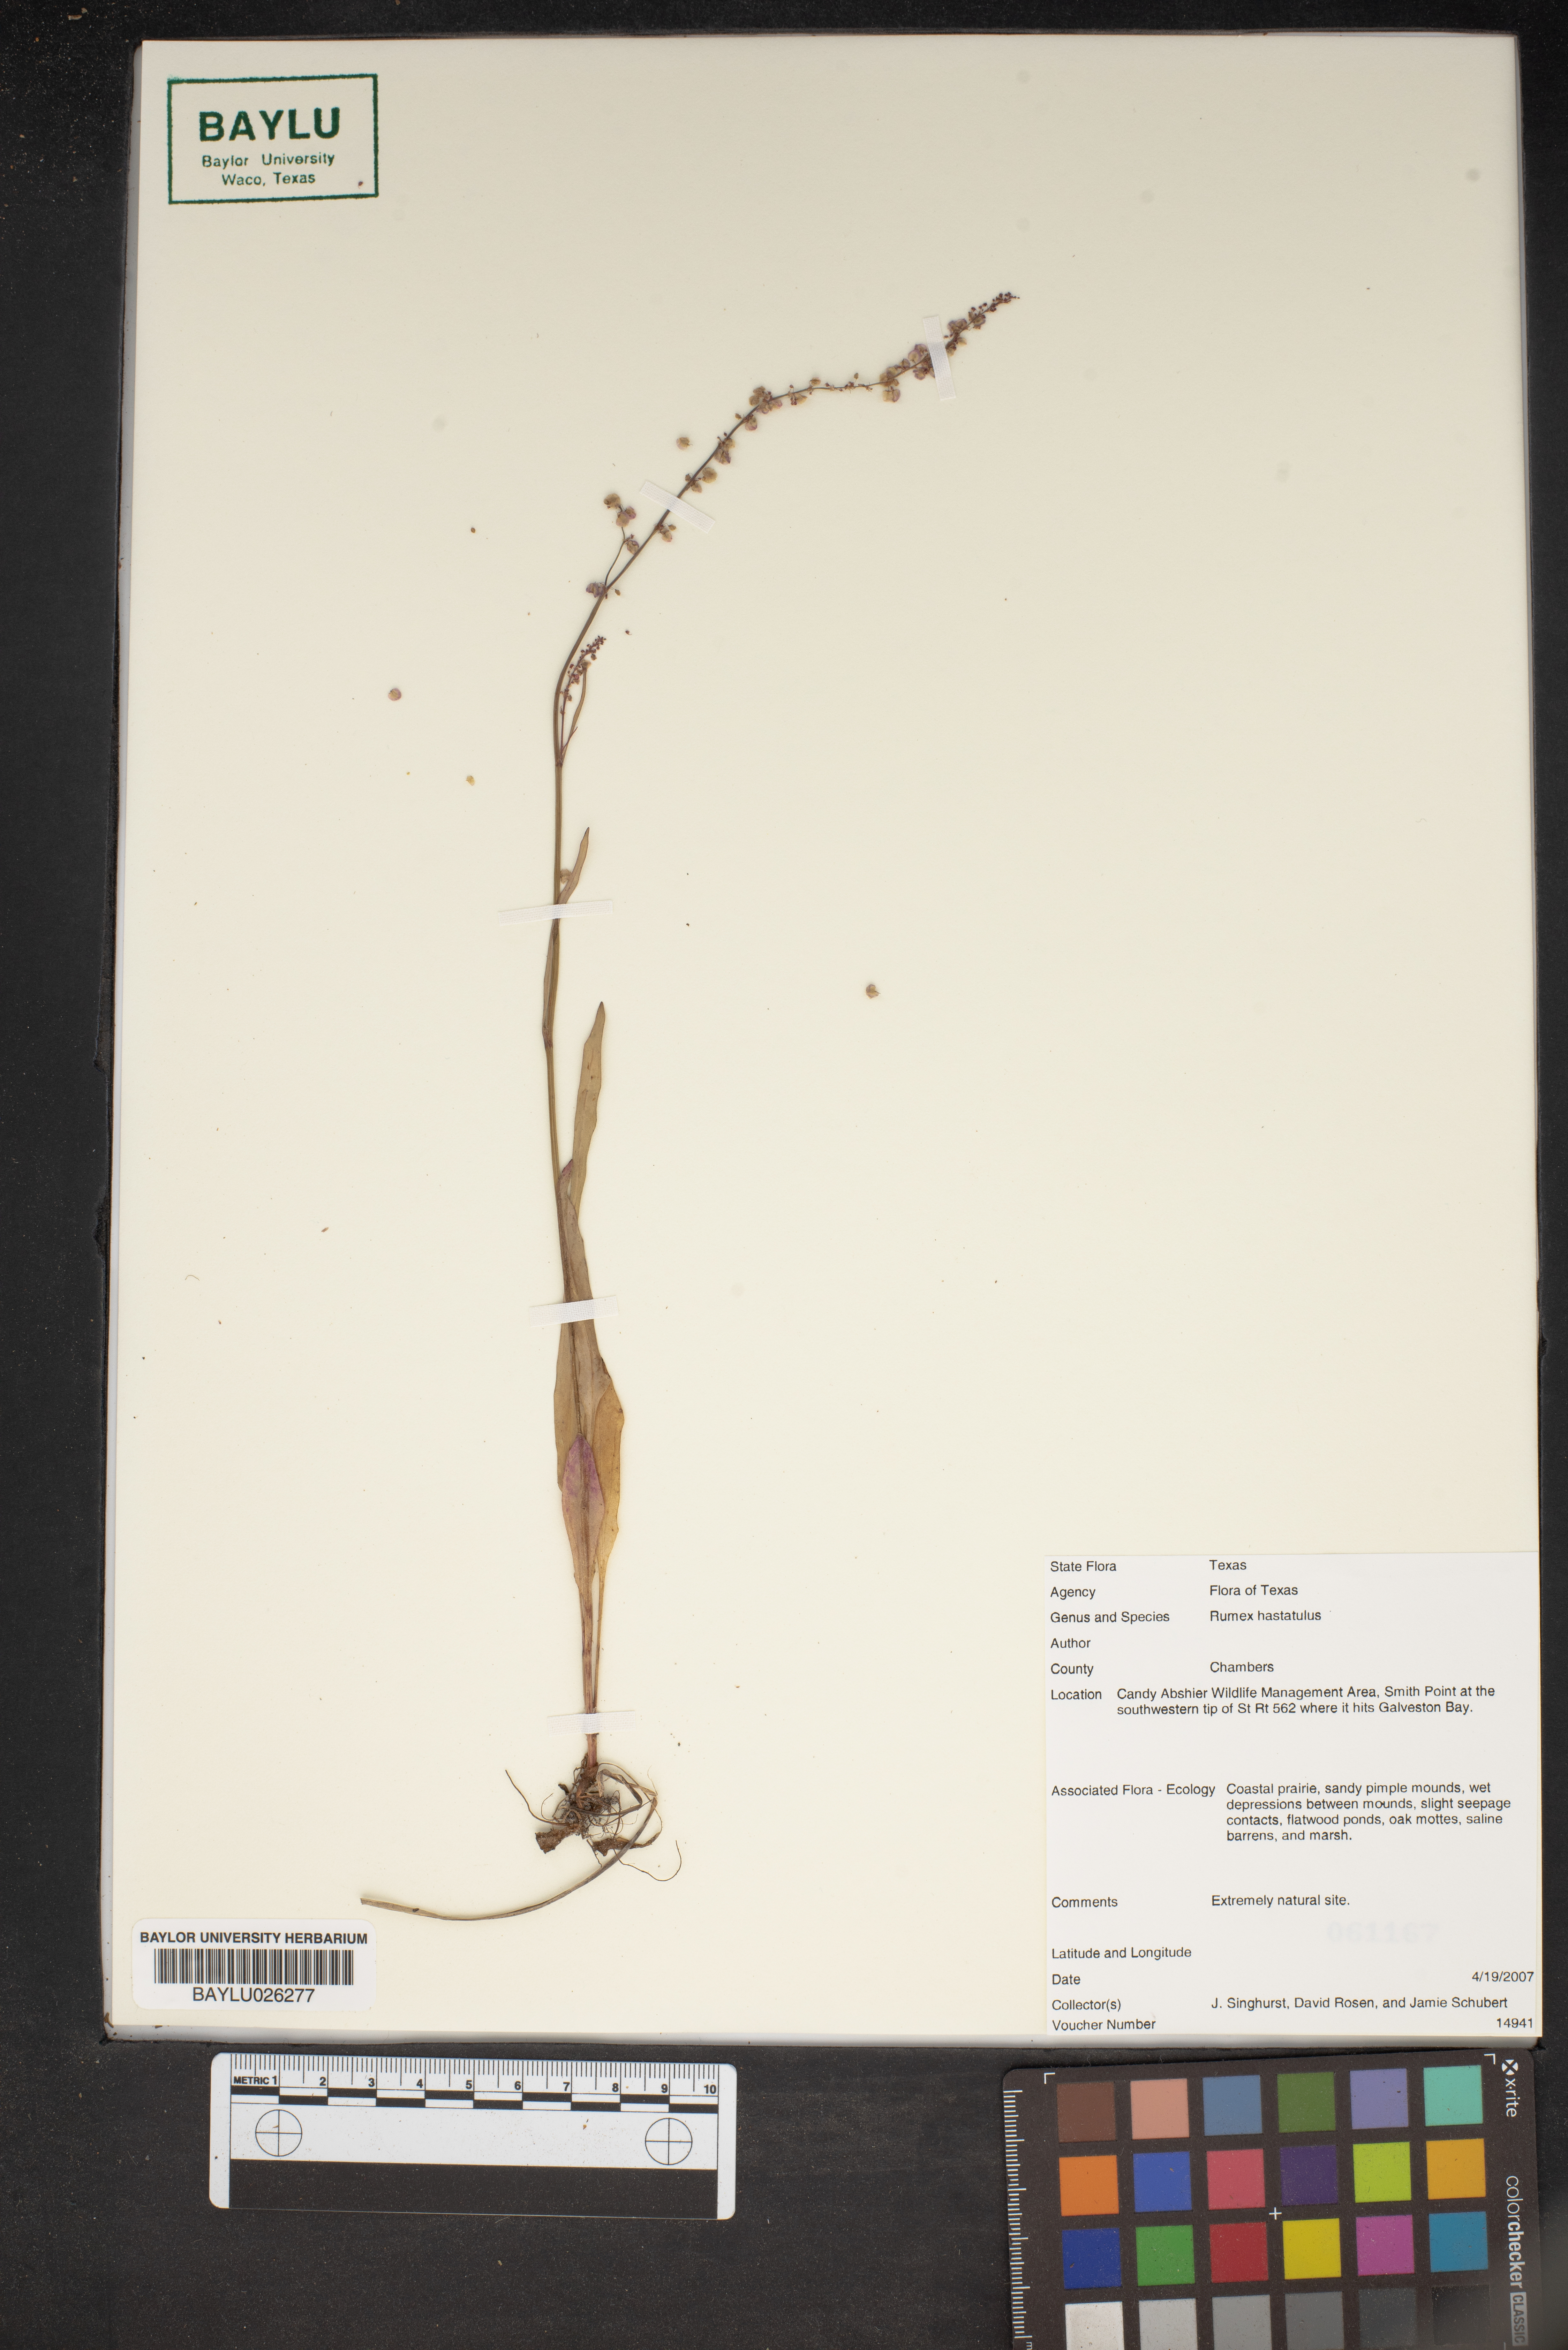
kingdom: Plantae
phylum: Tracheophyta
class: Magnoliopsida
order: Caryophyllales
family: Polygonaceae
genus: Rumex
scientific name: Rumex hastatulus
